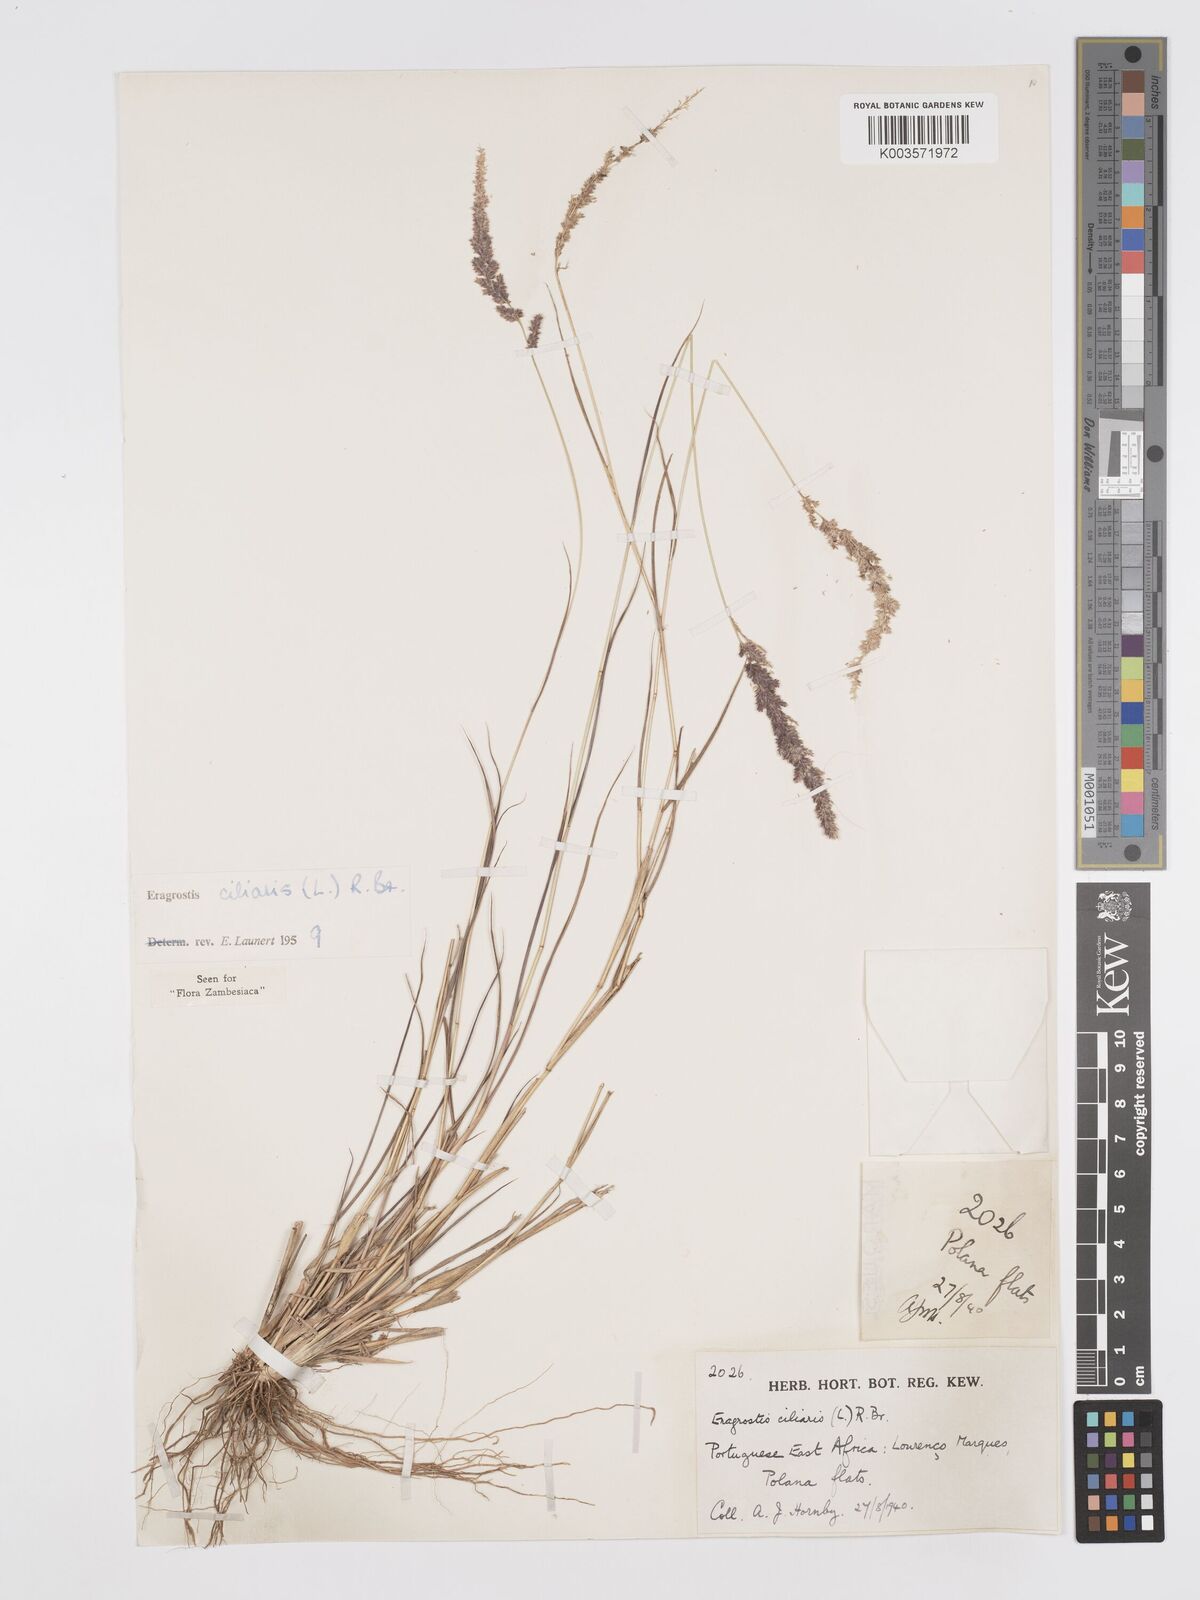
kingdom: Plantae
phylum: Tracheophyta
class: Liliopsida
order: Poales
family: Poaceae
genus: Eragrostis
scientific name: Eragrostis ciliaris
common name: Gophertail lovegrass
